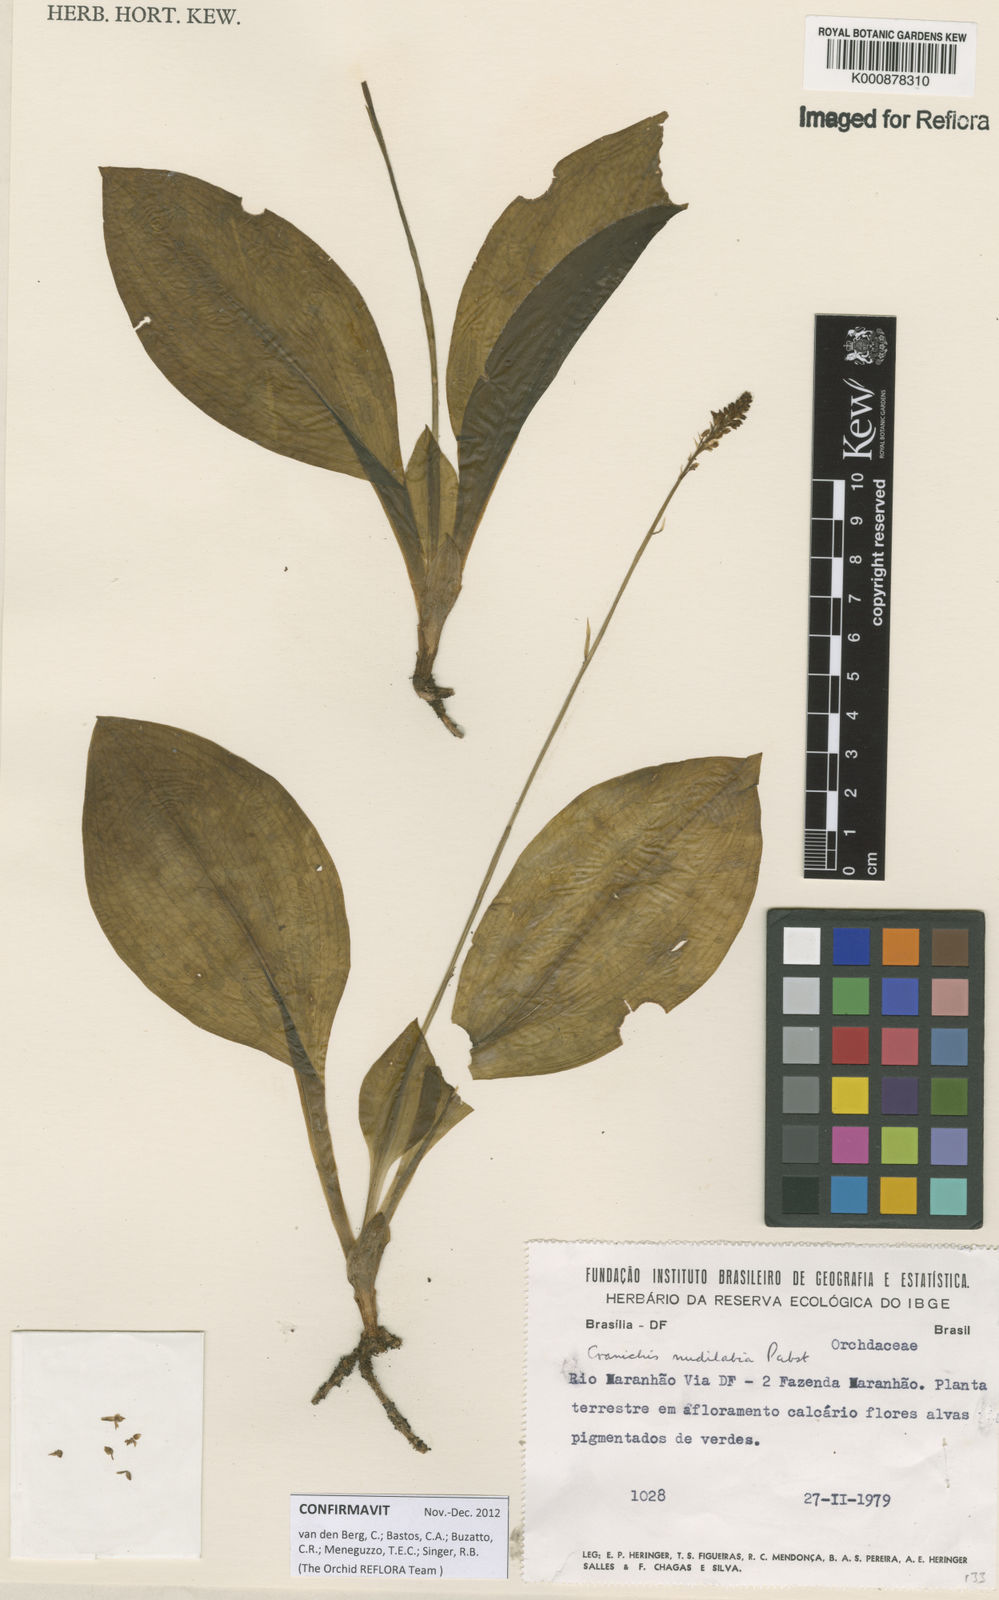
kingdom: Plantae
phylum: Tracheophyta
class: Liliopsida
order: Asparagales
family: Orchidaceae
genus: Cranichis
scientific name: Cranichis nudilabia
